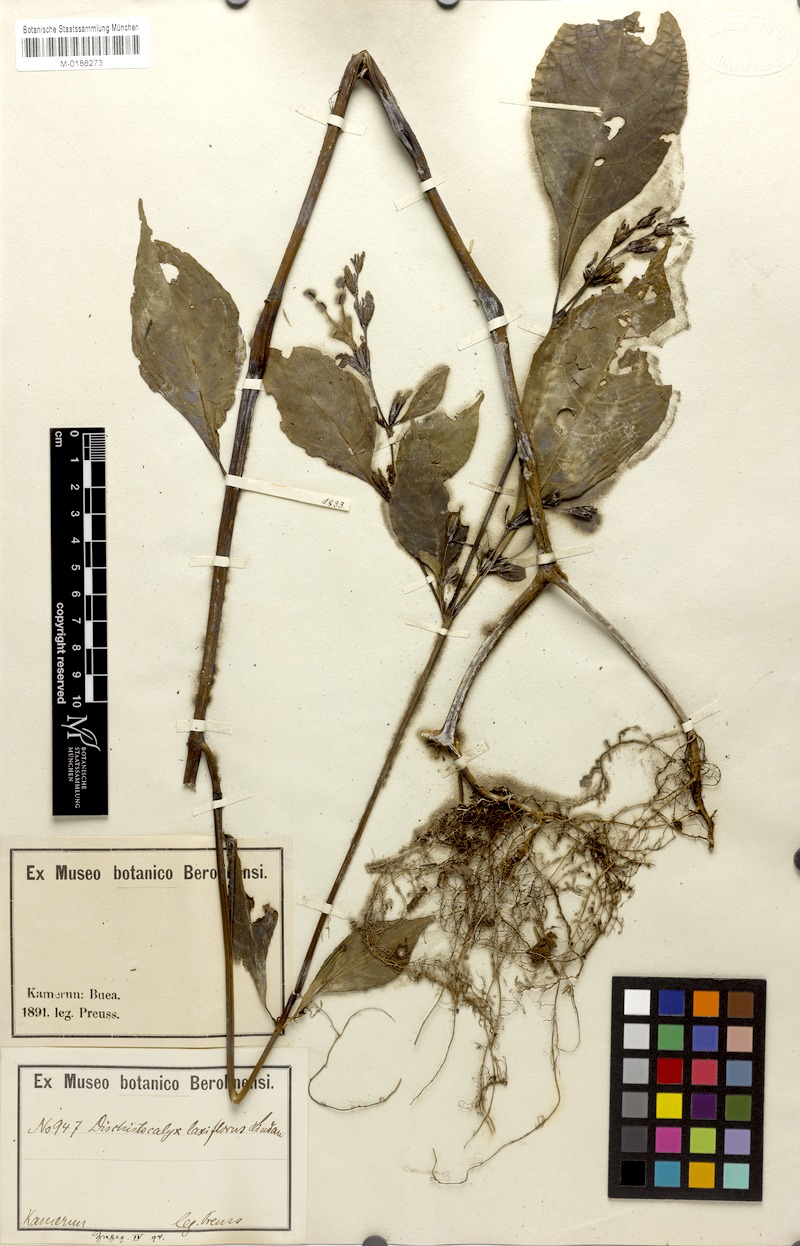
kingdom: Plantae
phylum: Tracheophyta
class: Magnoliopsida
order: Lamiales
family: Acanthaceae
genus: Acanthopale
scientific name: Acanthopale laxiflora
